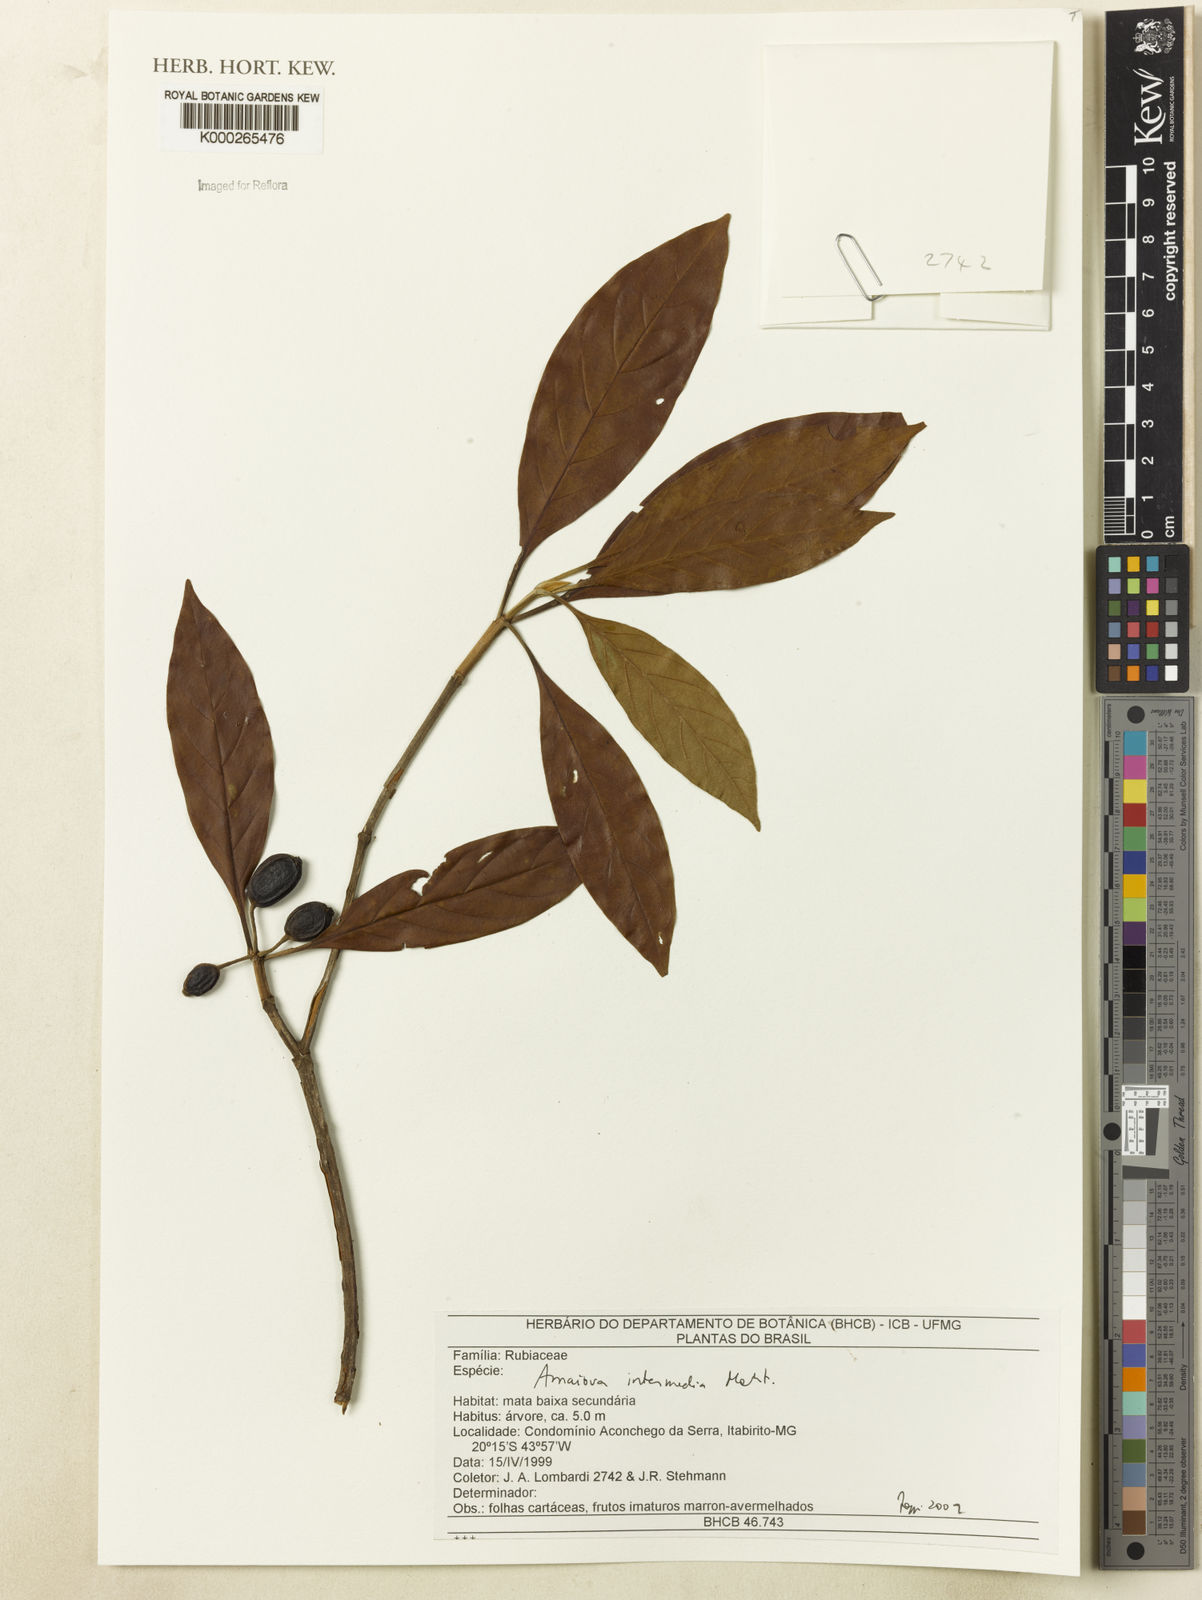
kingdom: Plantae
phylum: Tracheophyta
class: Magnoliopsida
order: Gentianales
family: Rubiaceae
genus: Amaioua
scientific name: Amaioua intermedia
